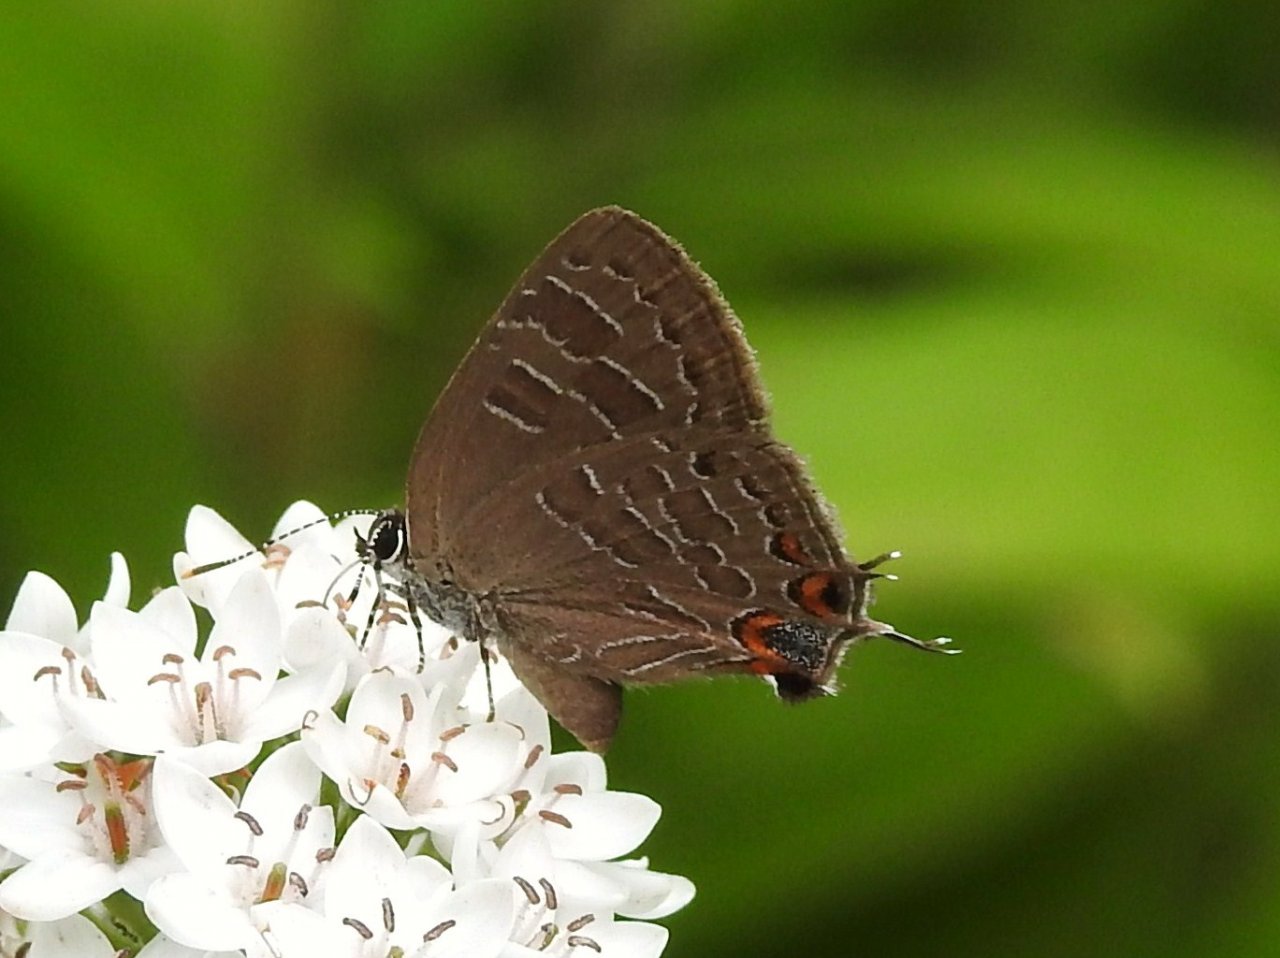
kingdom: Animalia
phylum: Arthropoda
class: Insecta
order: Lepidoptera
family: Lycaenidae
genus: Satyrium
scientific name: Satyrium liparops
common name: Striped Hairstreak
